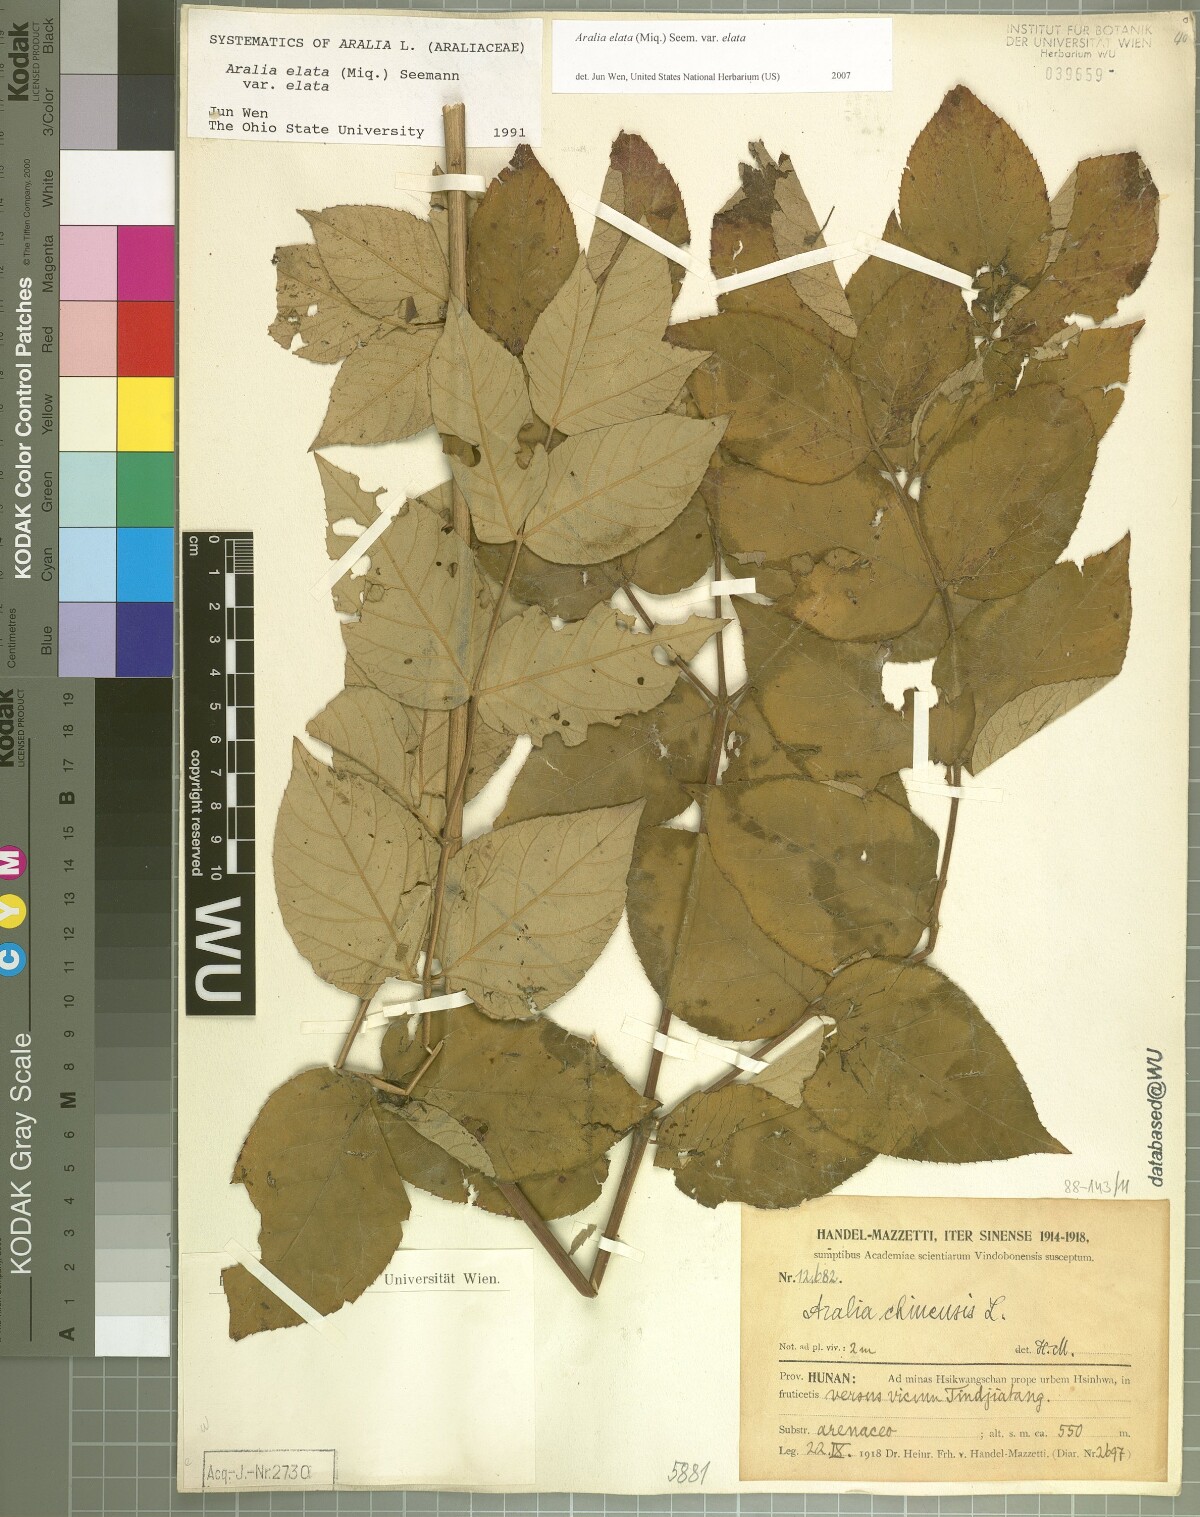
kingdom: Plantae
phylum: Tracheophyta
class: Magnoliopsida
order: Apiales
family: Araliaceae
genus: Aralia
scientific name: Aralia elata
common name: Japanese angelica-tree
